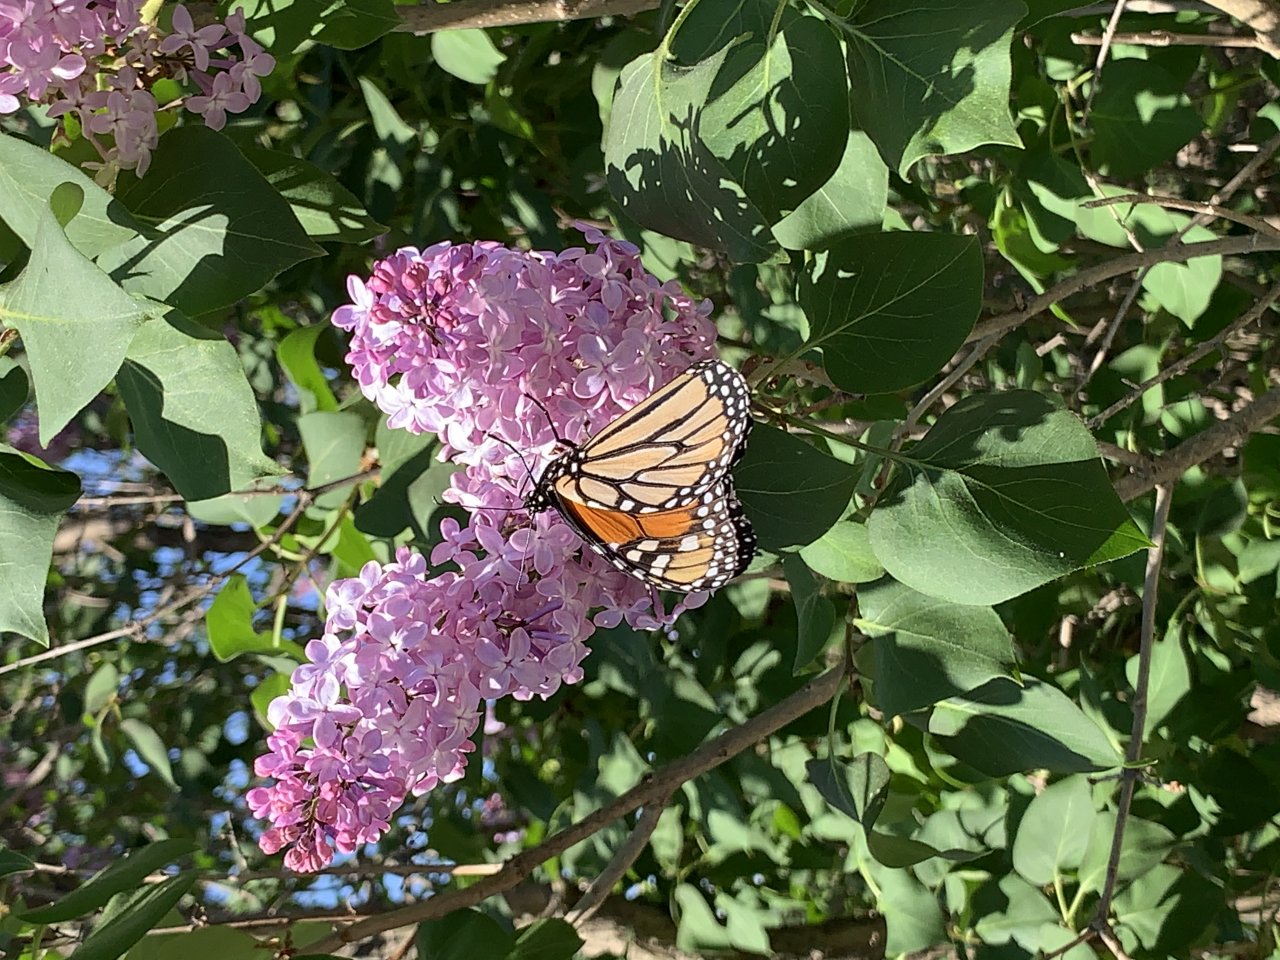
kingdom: Animalia
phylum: Arthropoda
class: Insecta
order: Lepidoptera
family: Nymphalidae
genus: Danaus
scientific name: Danaus plexippus
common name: Monarch
